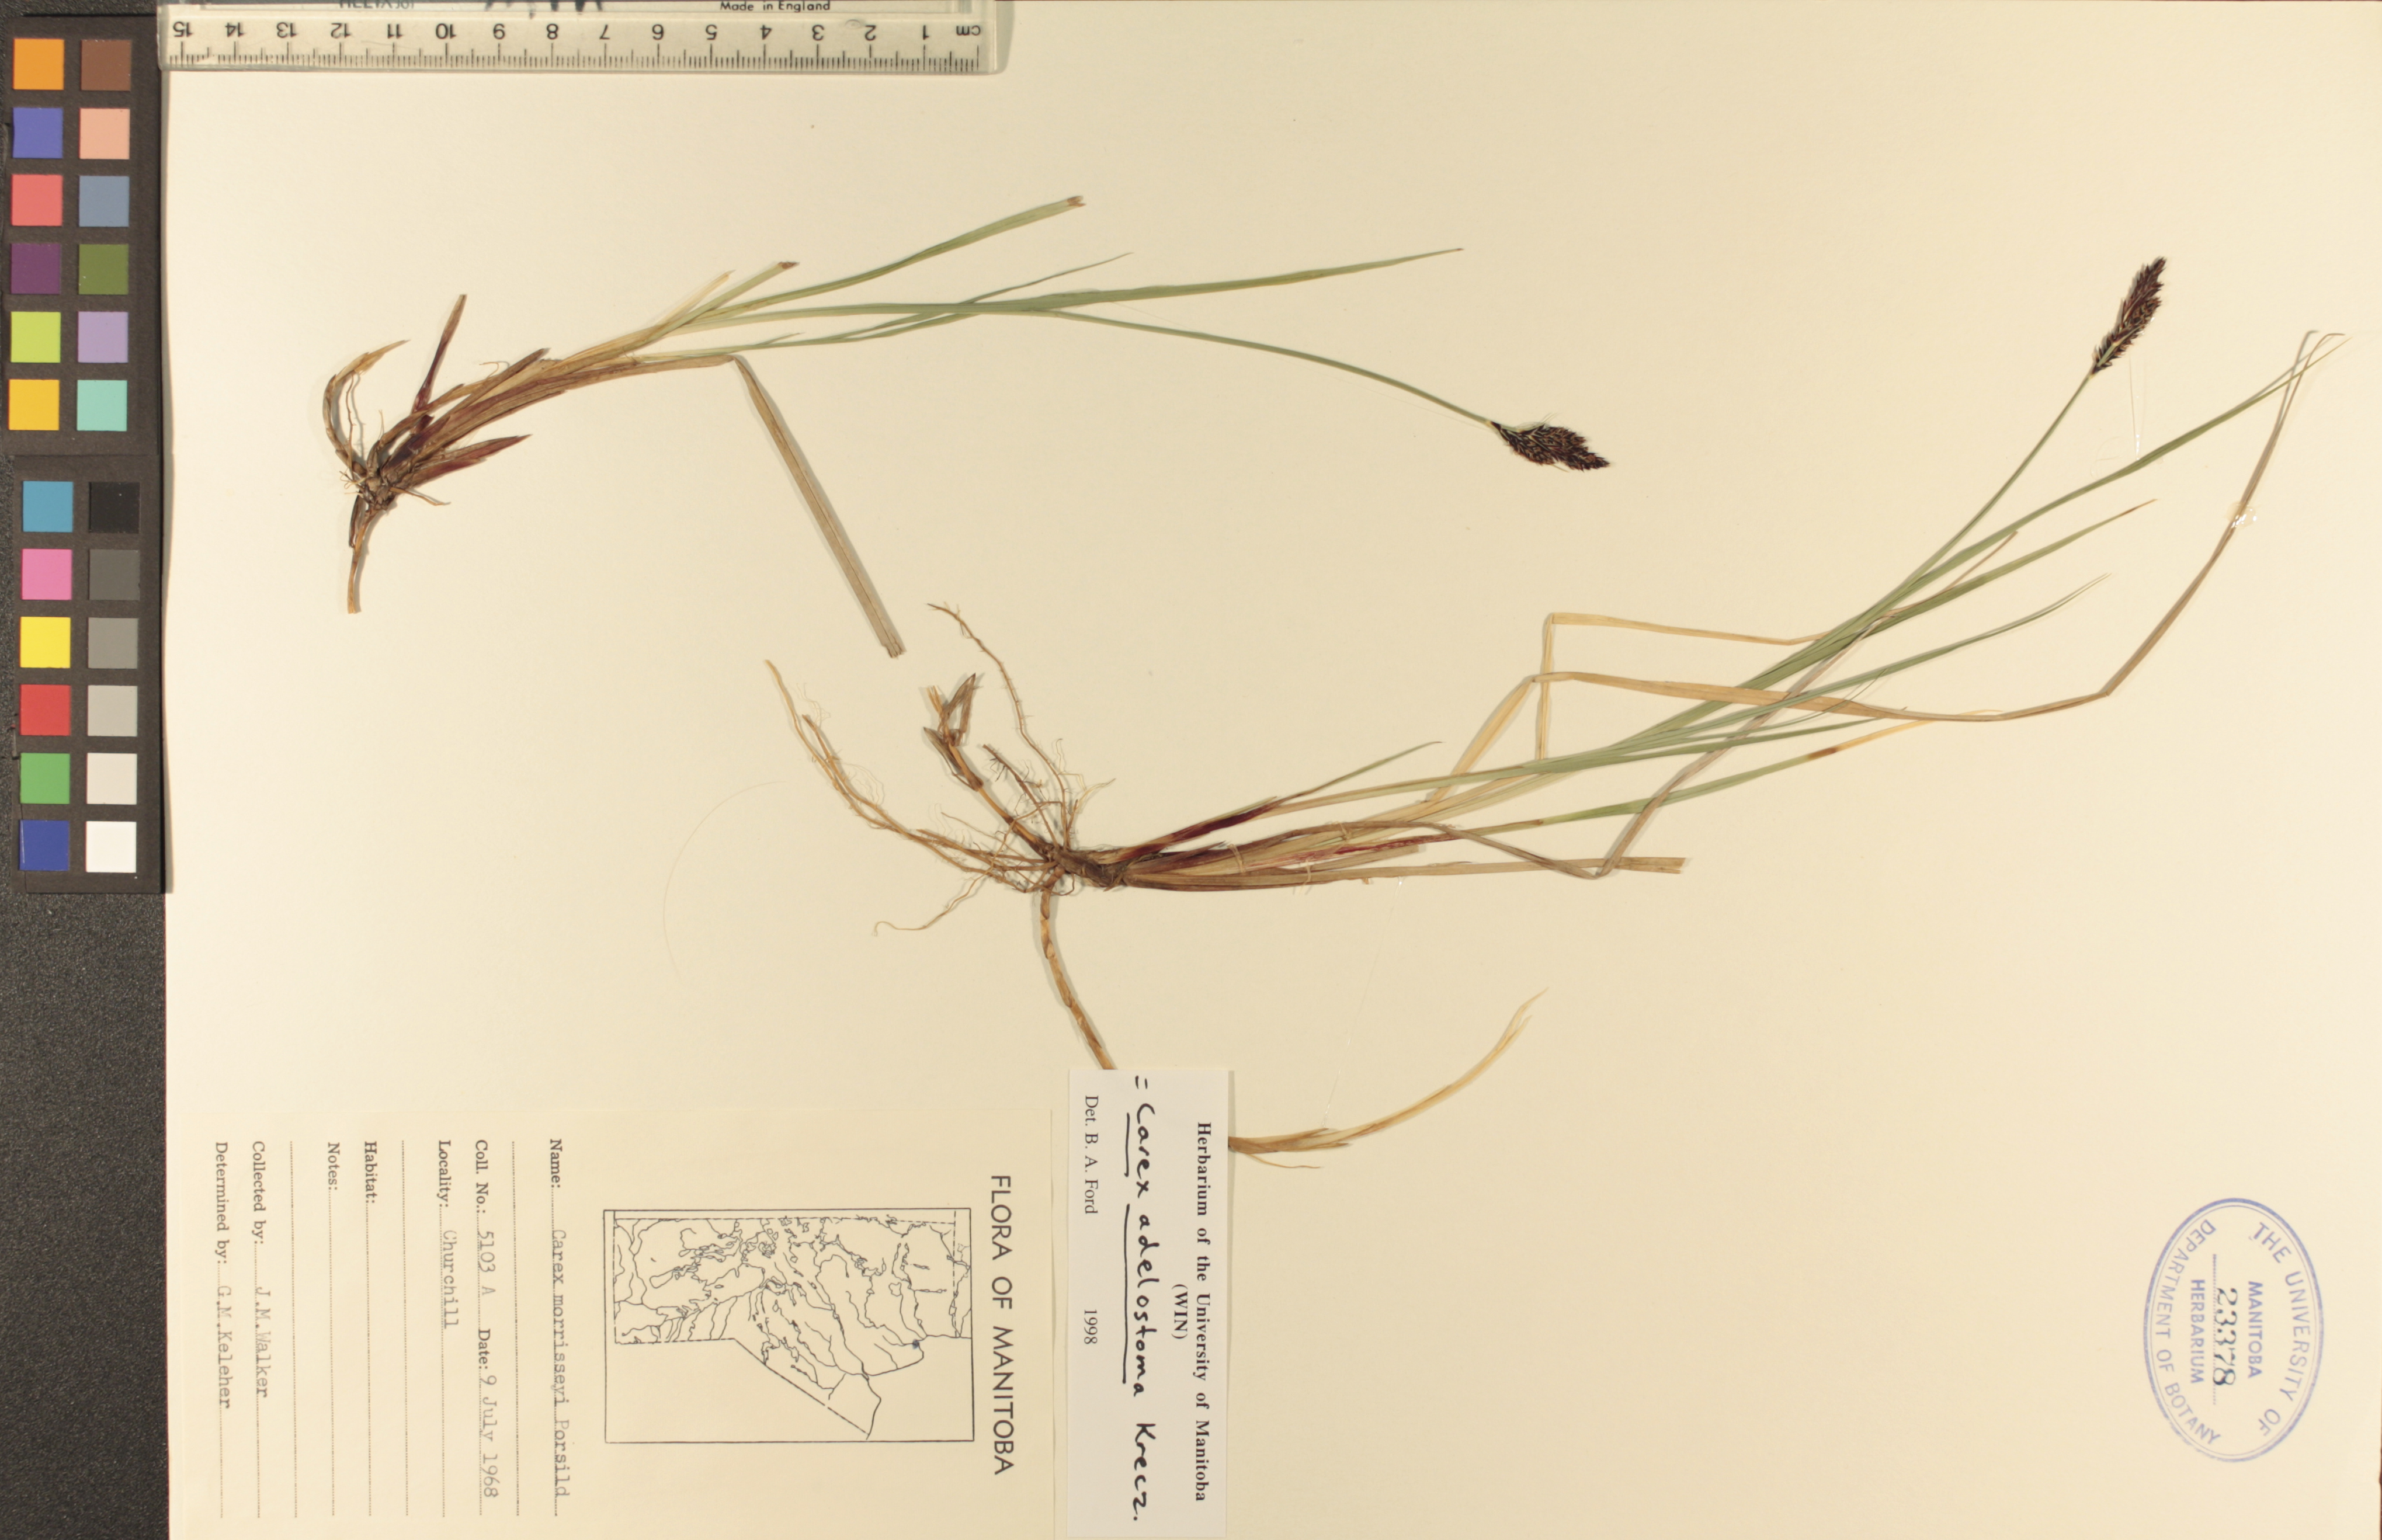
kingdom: Plantae
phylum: Tracheophyta
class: Liliopsida
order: Poales
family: Cyperaceae
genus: Carex
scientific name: Carex adelostoma
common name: Circumpolar sedge
